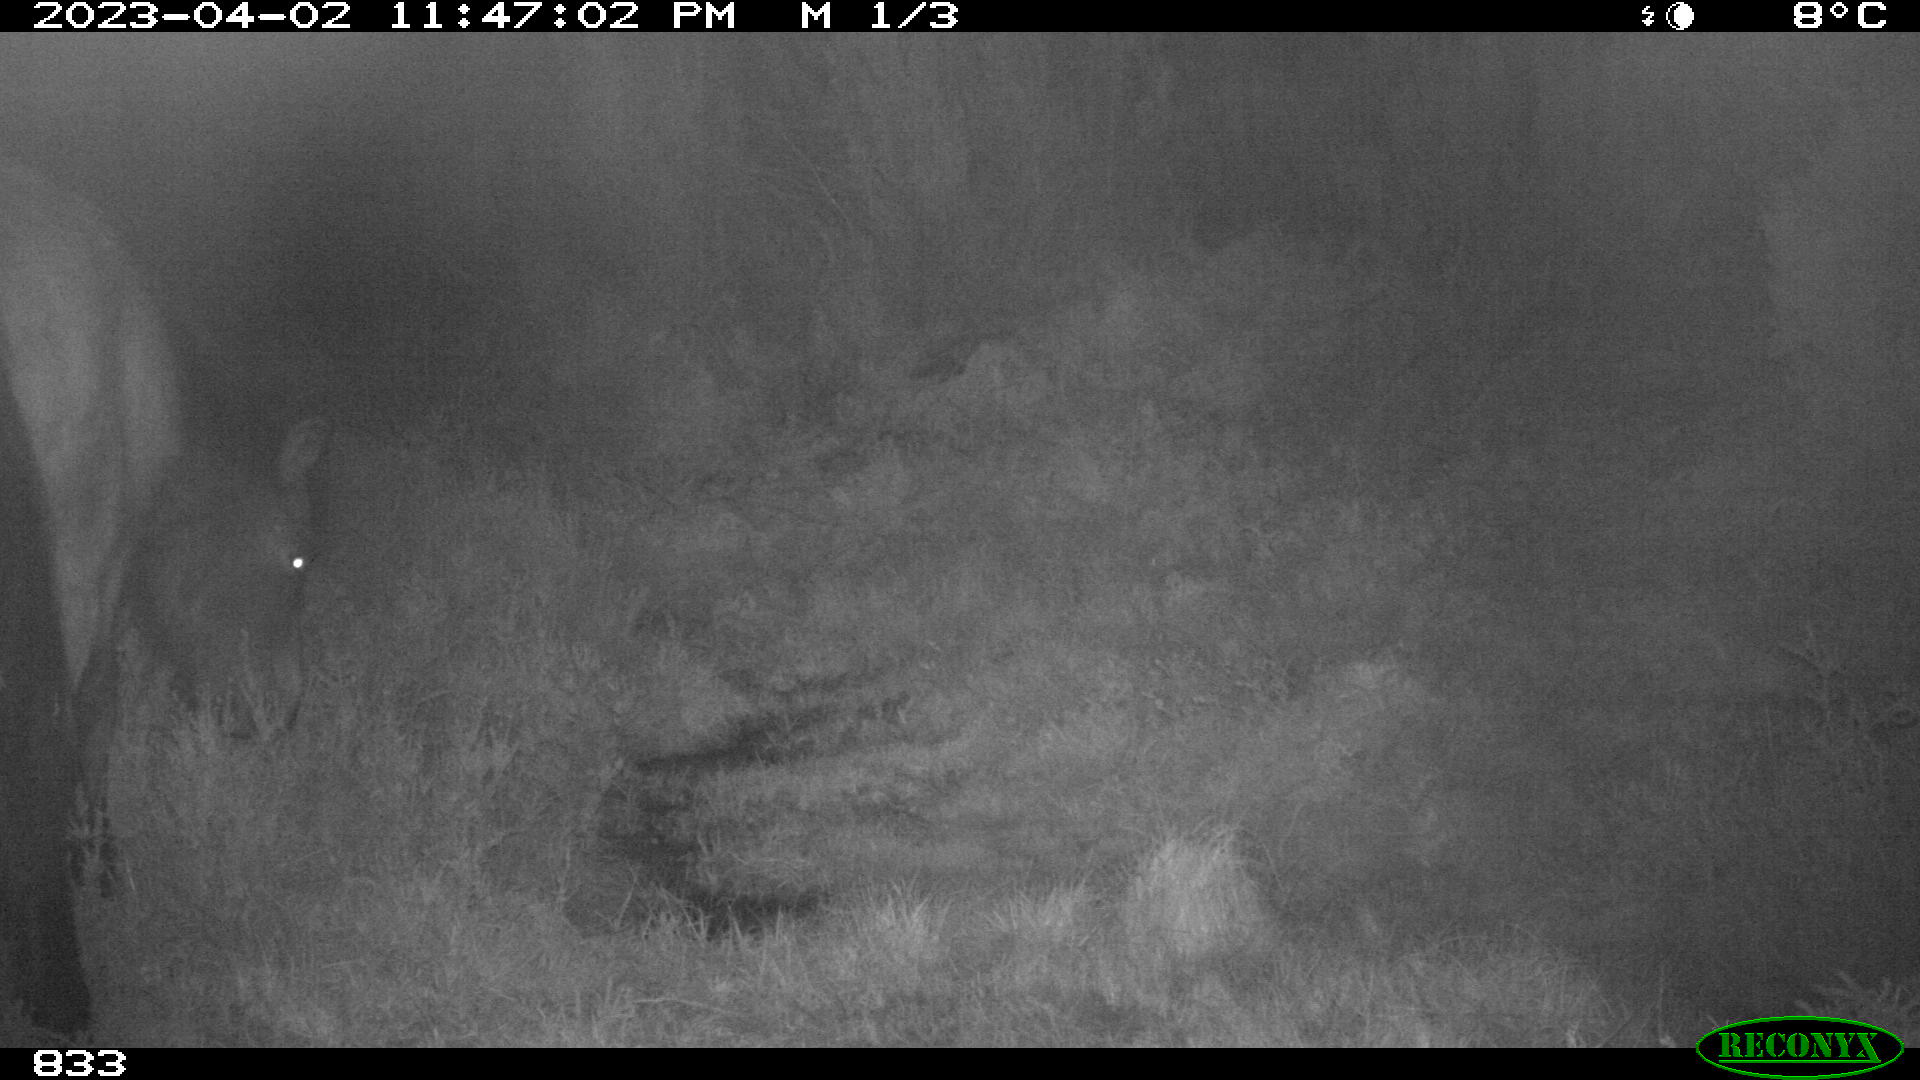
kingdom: Animalia
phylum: Chordata
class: Mammalia
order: Perissodactyla
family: Equidae
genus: Equus
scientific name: Equus caballus
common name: Horse
